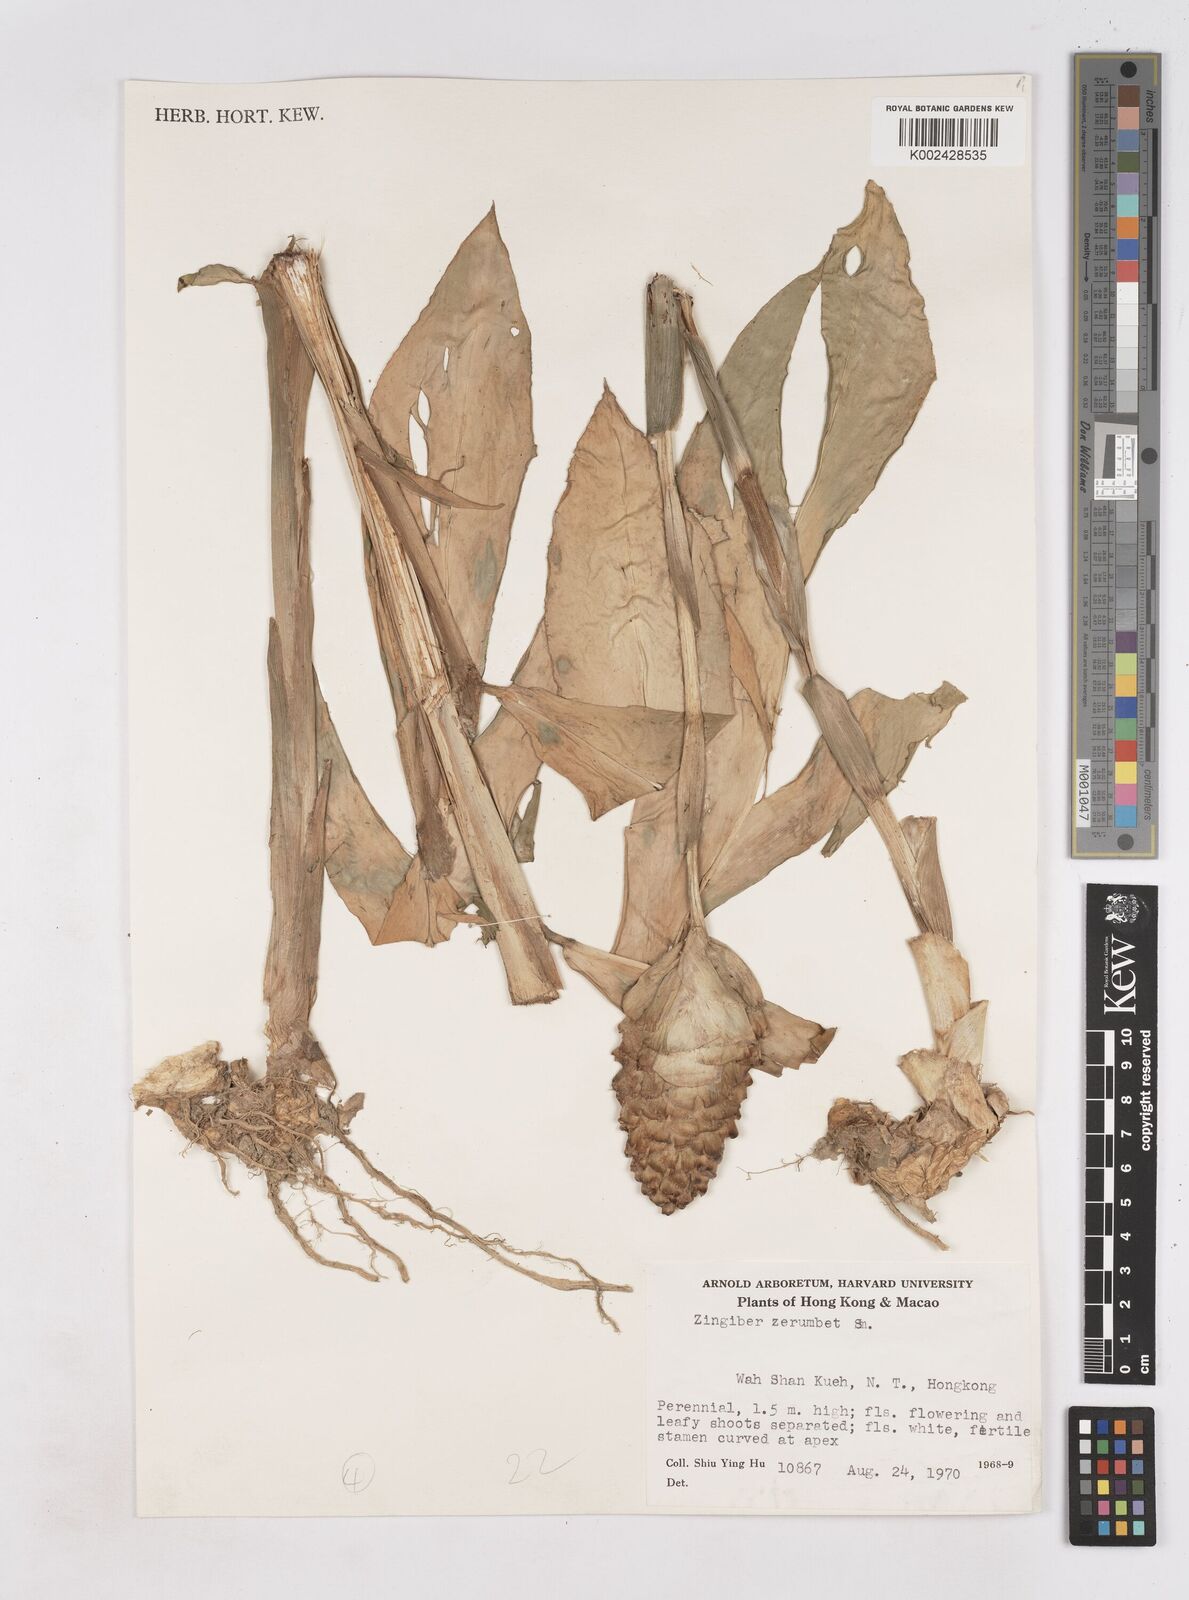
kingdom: Plantae
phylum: Tracheophyta
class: Liliopsida
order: Zingiberales
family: Zingiberaceae
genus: Zingiber
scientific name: Zingiber zerumbet
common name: Bitter ginger
